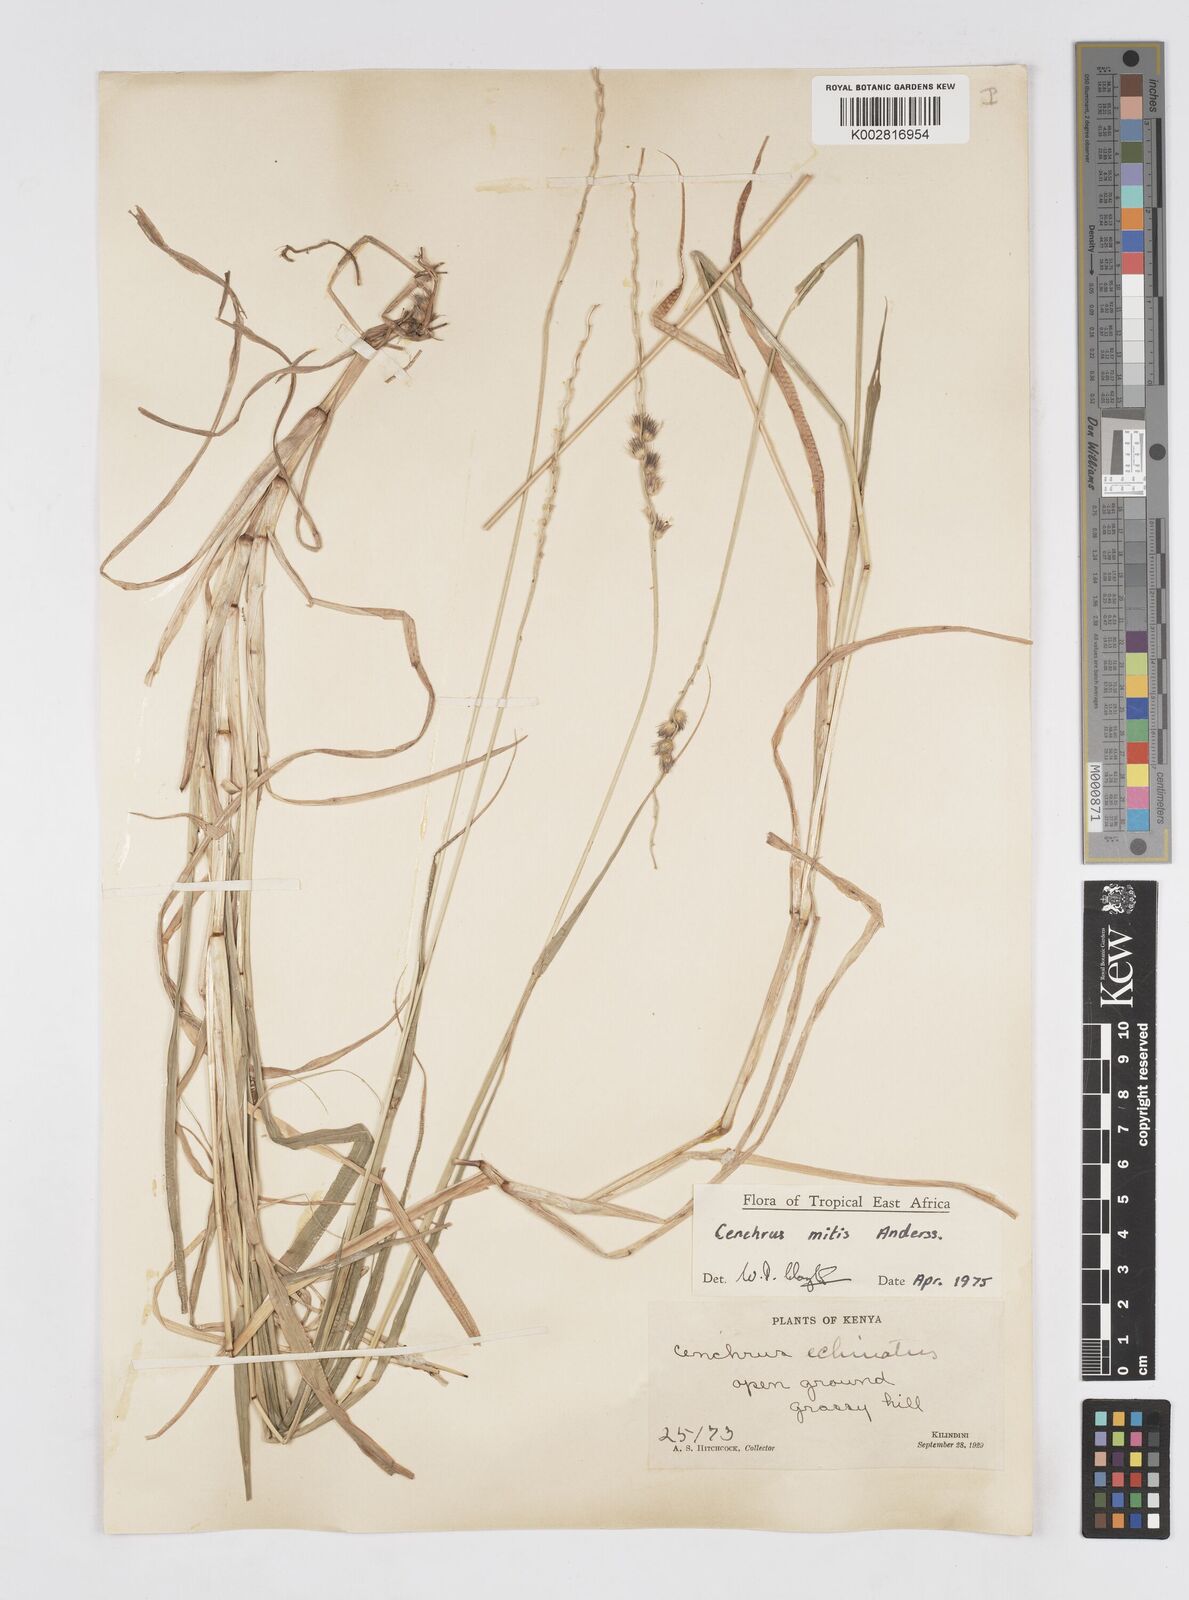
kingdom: Plantae
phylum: Tracheophyta
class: Liliopsida
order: Poales
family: Poaceae
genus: Cenchrus
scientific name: Cenchrus mitis
